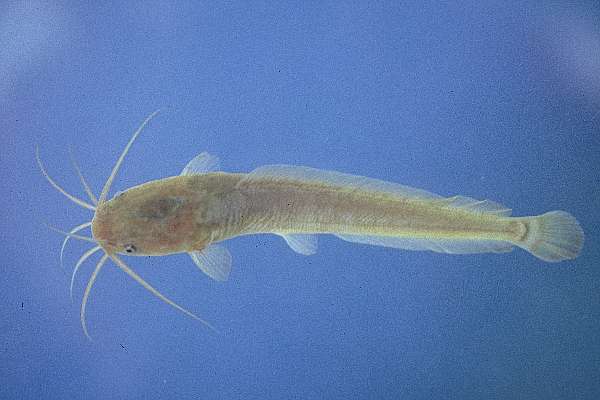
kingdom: Animalia
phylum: Chordata
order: Siluriformes
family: Clariidae
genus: Clarias
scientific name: Clarias gariepinus
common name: African catfish
